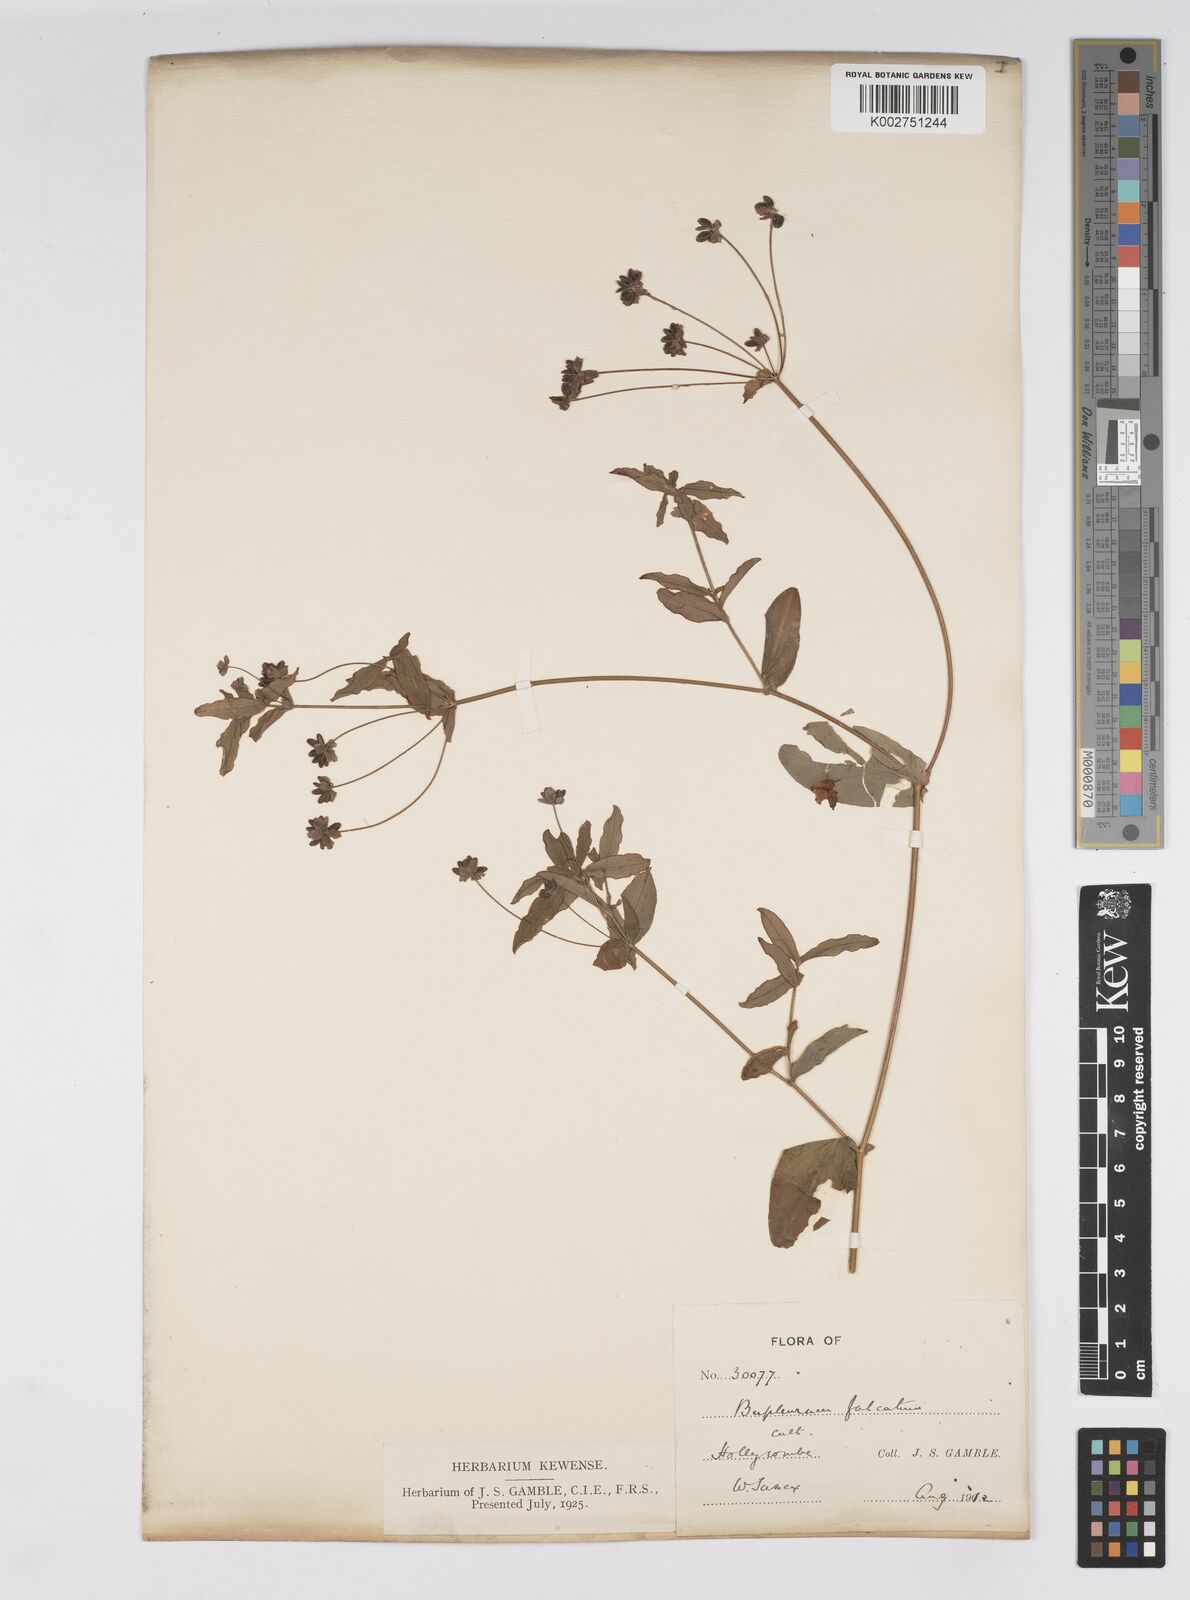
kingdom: Plantae
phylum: Tracheophyta
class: Magnoliopsida
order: Apiales
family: Apiaceae
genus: Bupleurum
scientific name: Bupleurum candollei
